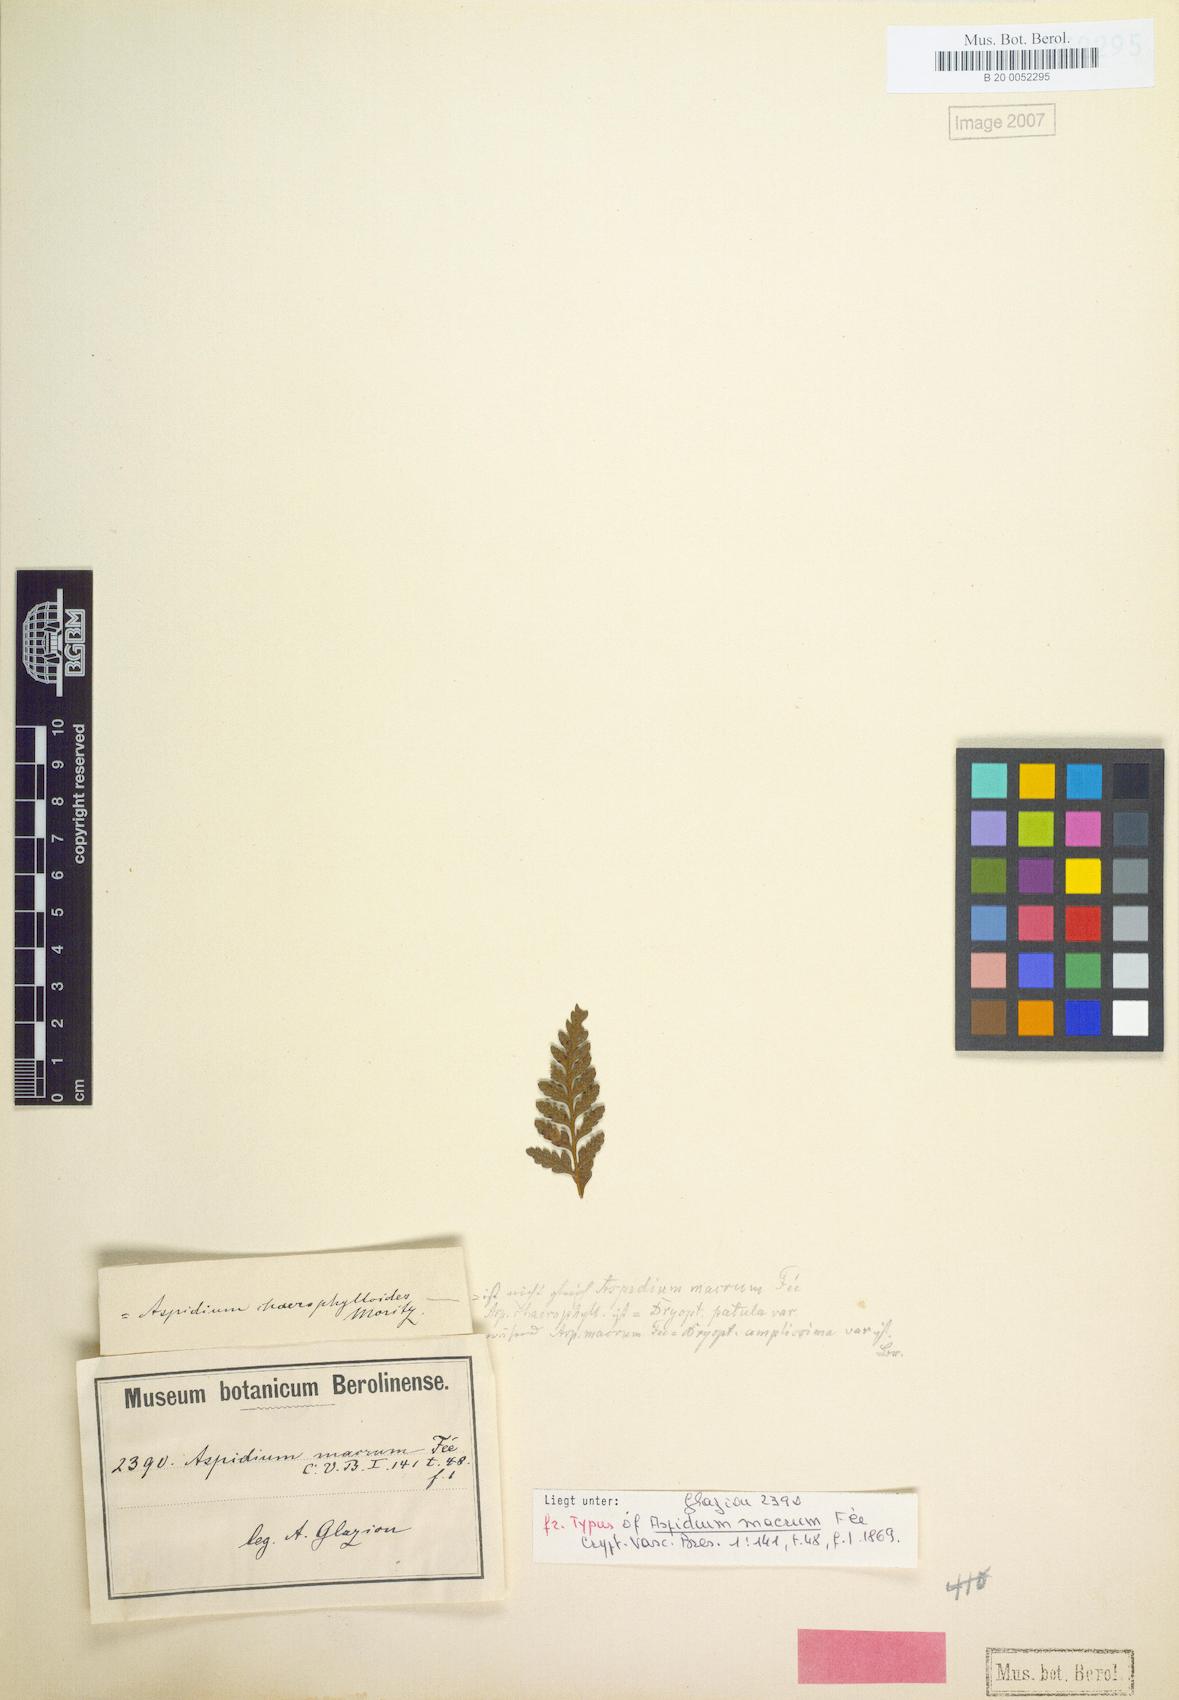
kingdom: Plantae
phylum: Tracheophyta
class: Polypodiopsida
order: Polypodiales
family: Dryopteridaceae
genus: Lastreopsis
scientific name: Lastreopsis amplissima
